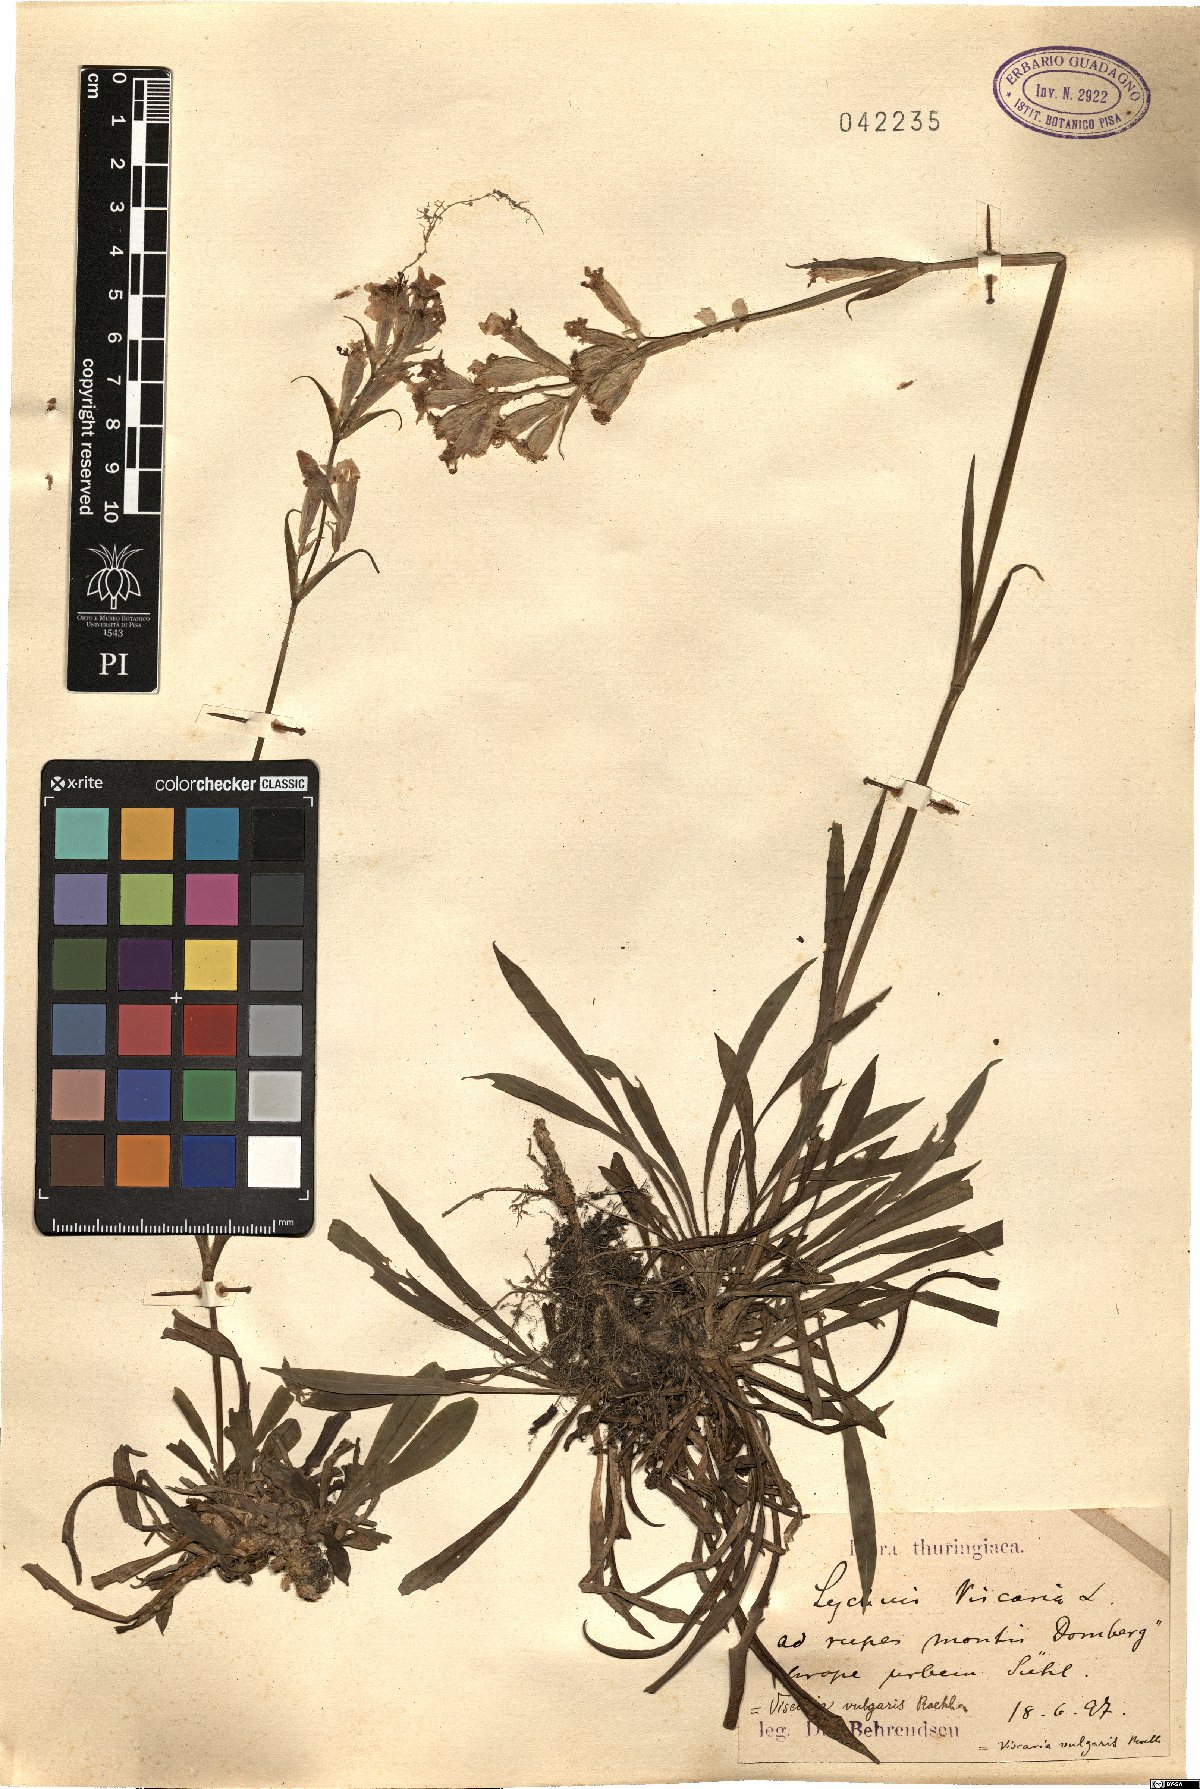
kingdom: Plantae
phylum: Tracheophyta
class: Magnoliopsida
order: Caryophyllales
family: Caryophyllaceae
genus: Viscaria
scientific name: Viscaria vulgaris
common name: Clammy campion
